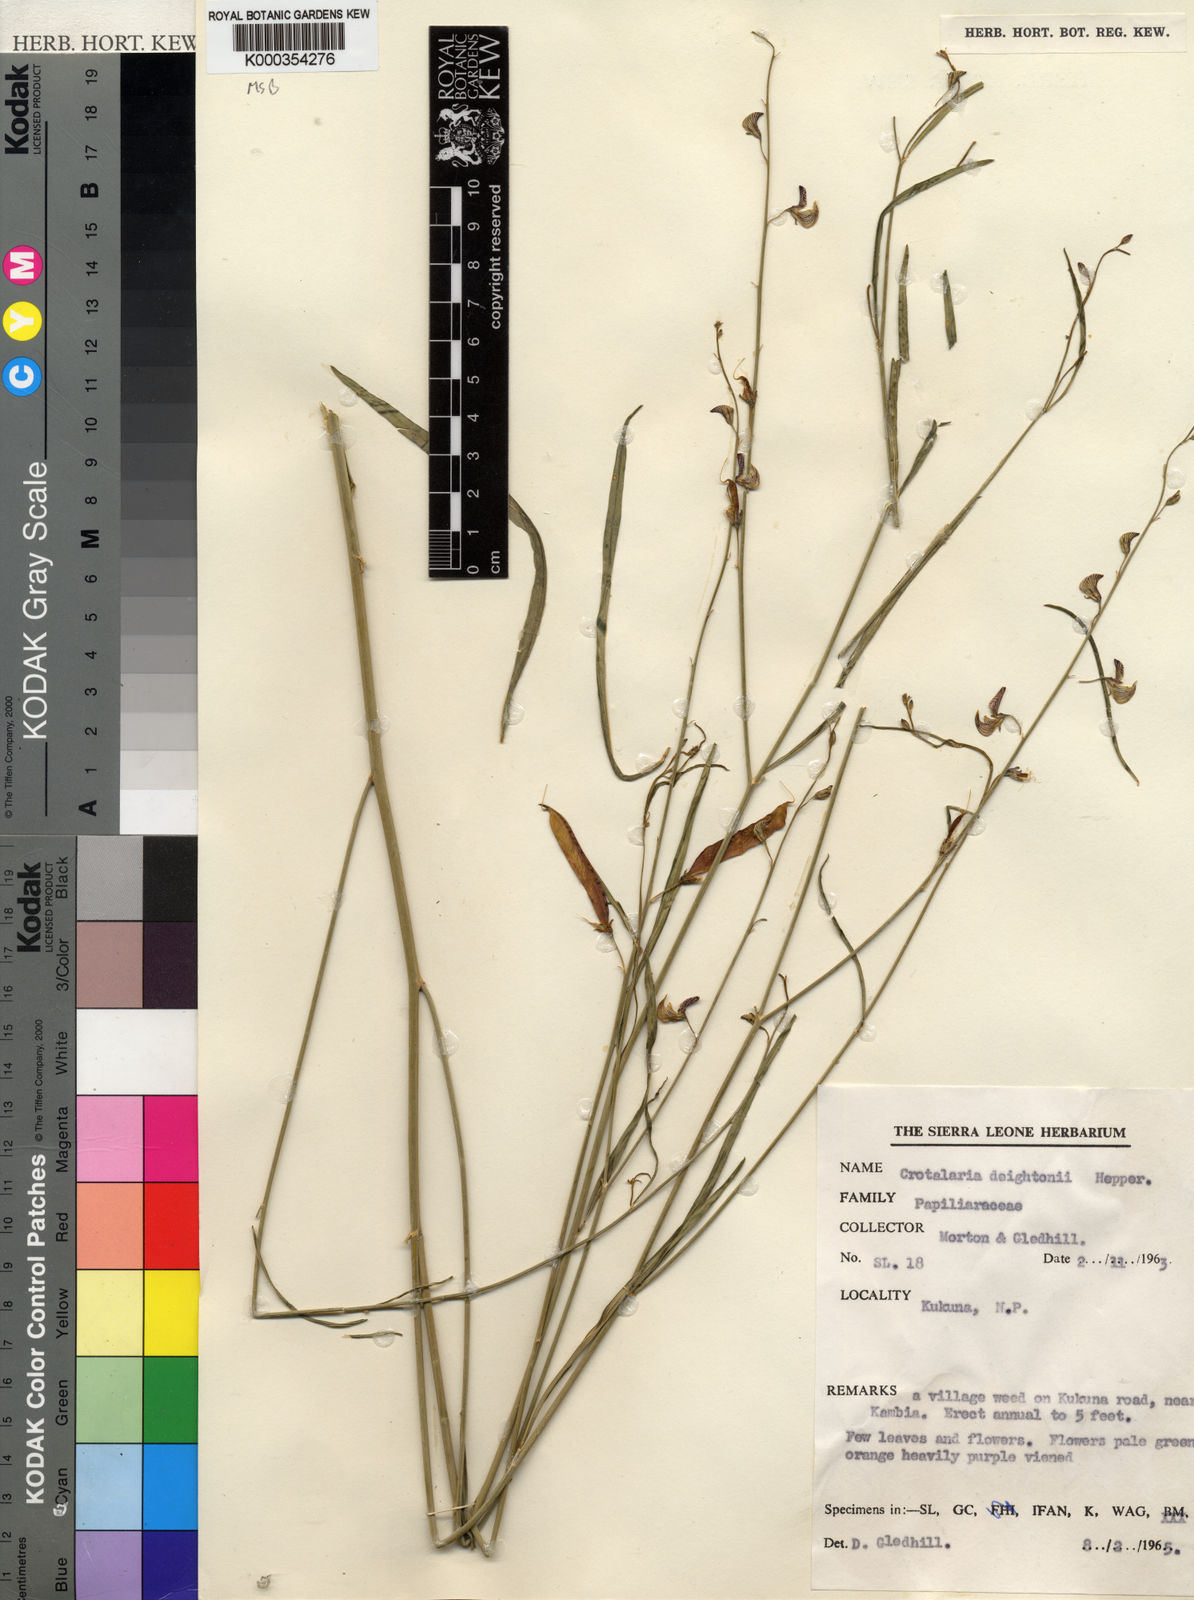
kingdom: Plantae
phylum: Tracheophyta
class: Magnoliopsida
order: Fabales
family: Fabaceae
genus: Crotalaria
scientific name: Crotalaria deightonii
